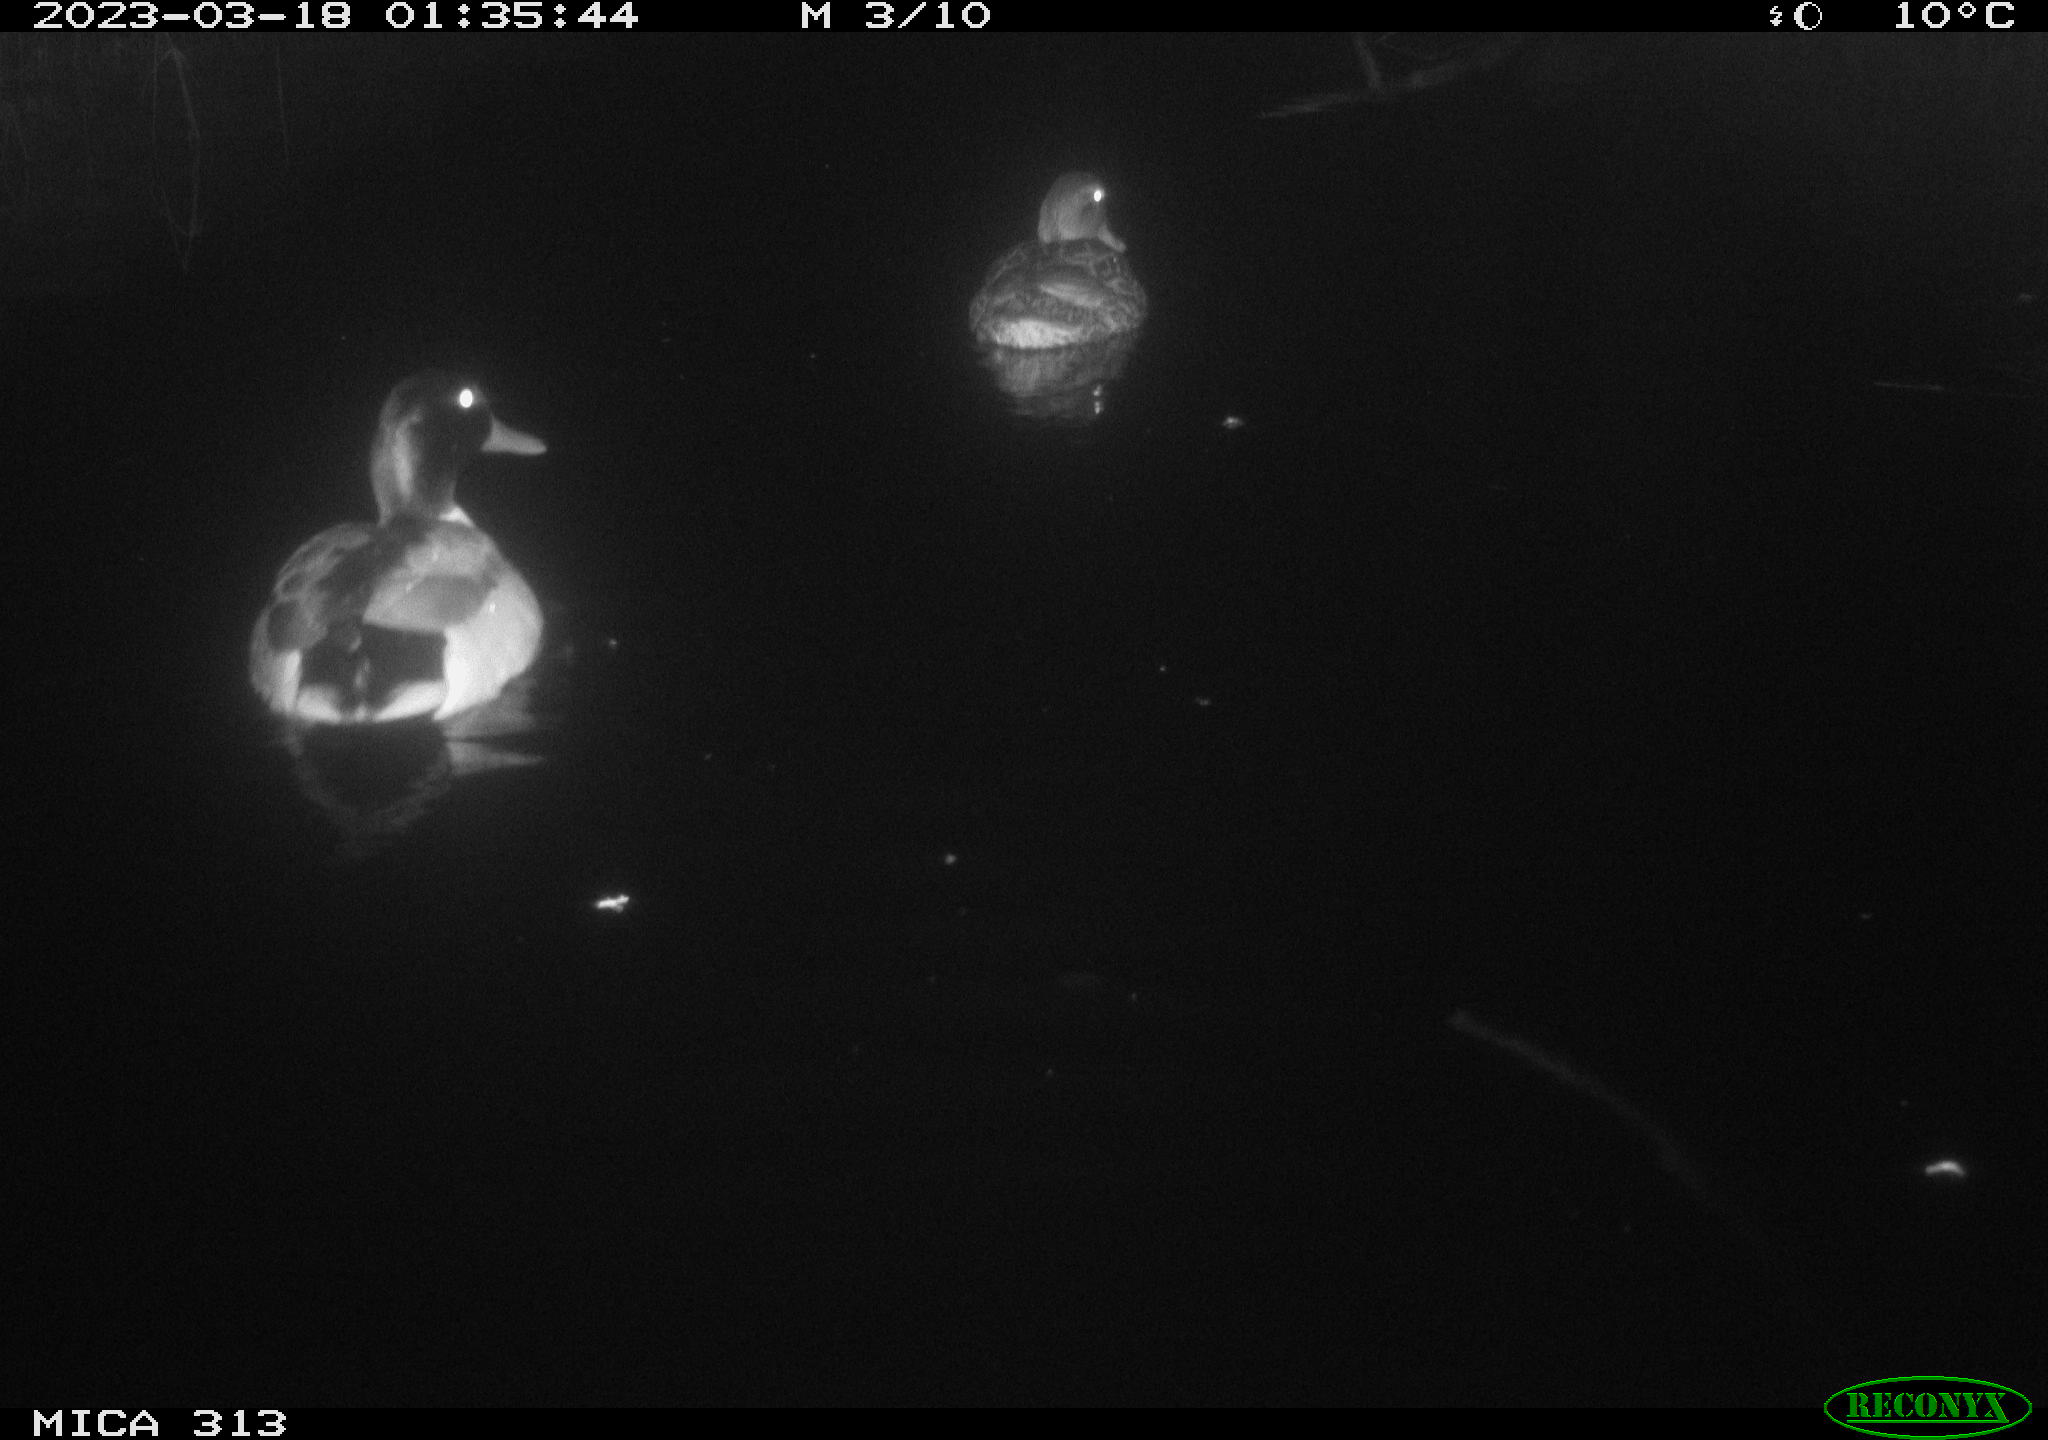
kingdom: Animalia
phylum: Chordata
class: Aves
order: Anseriformes
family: Anatidae
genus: Anas
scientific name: Anas
